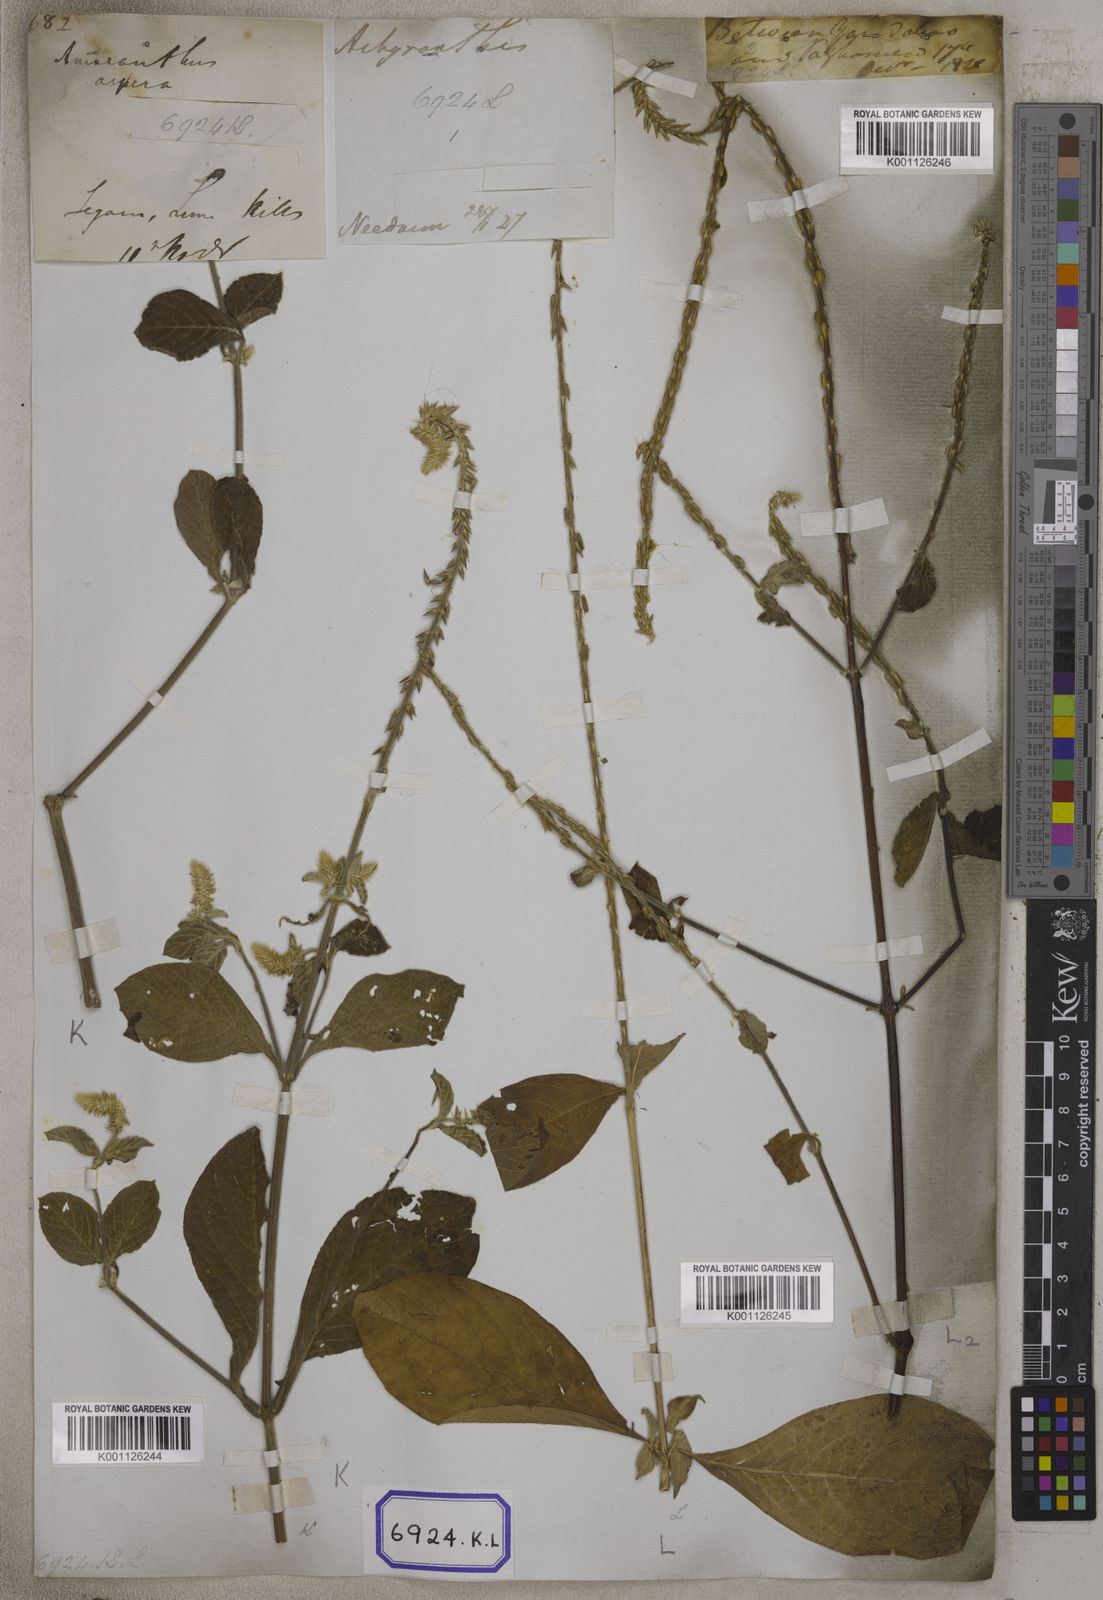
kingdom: Plantae
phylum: Tracheophyta
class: Magnoliopsida
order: Caryophyllales
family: Amaranthaceae
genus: Achyranthes
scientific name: Achyranthes
